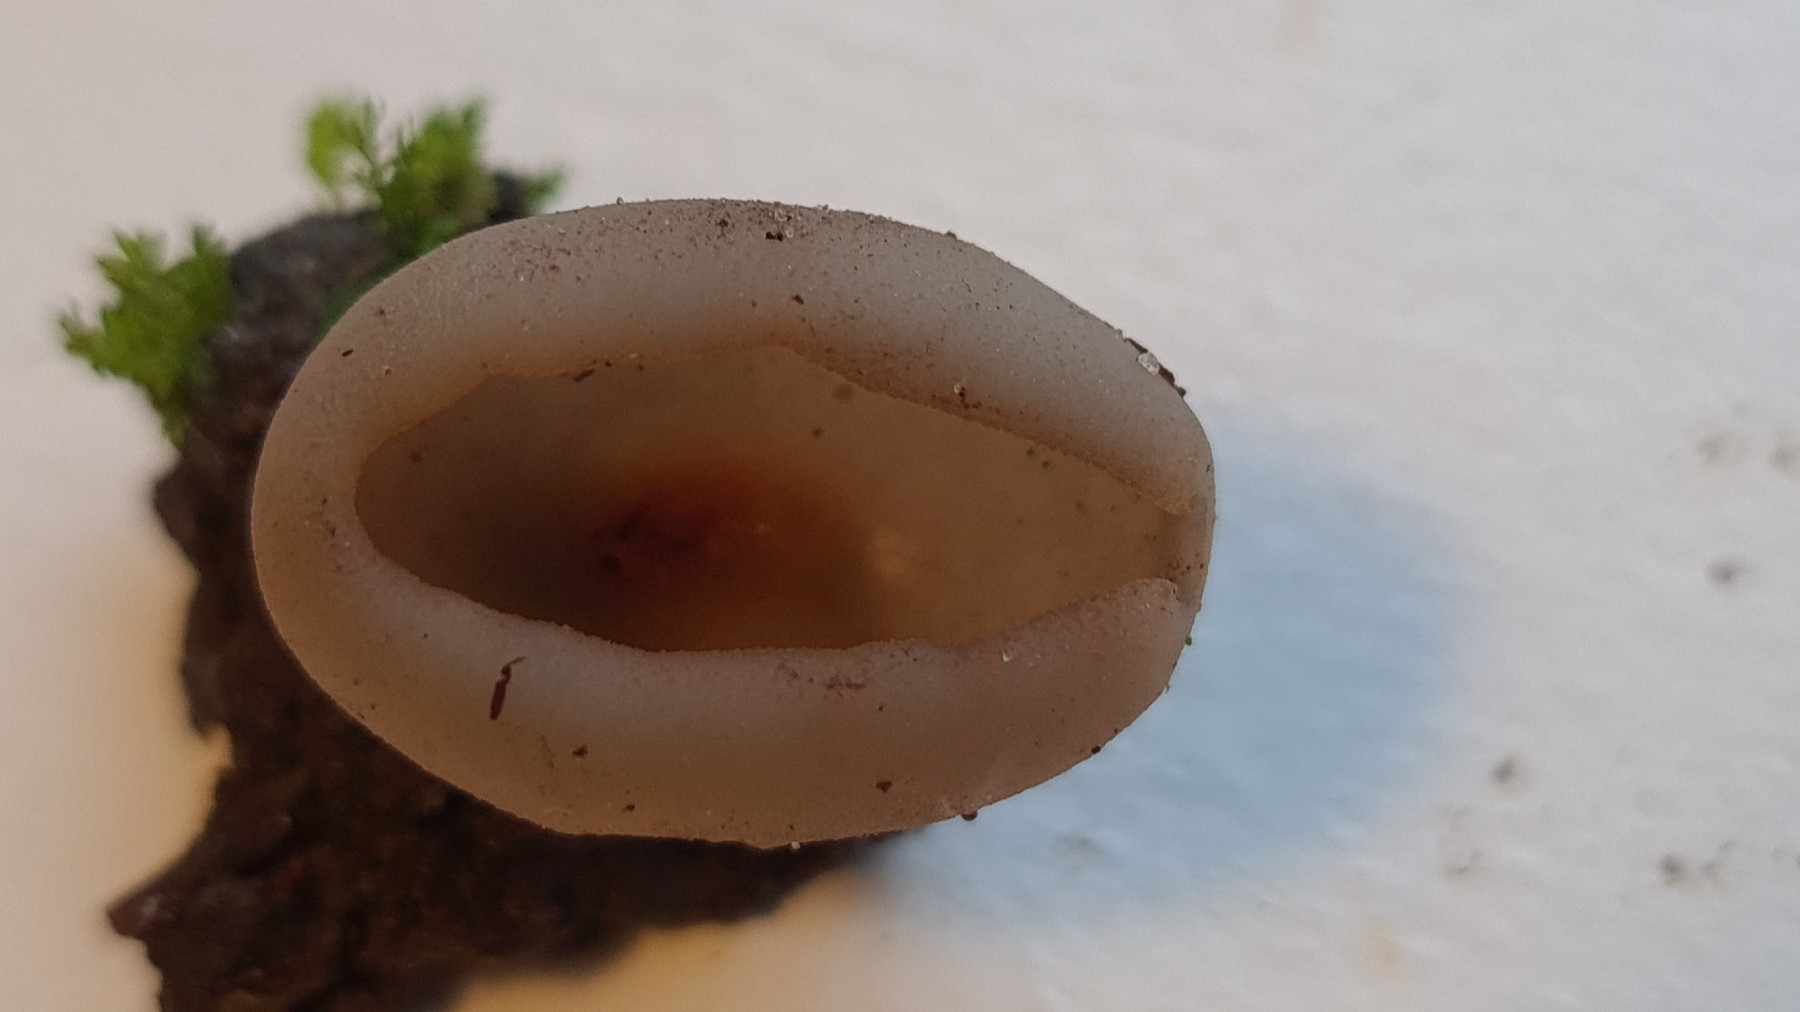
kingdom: Fungi
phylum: Ascomycota
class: Pezizomycetes
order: Pezizales
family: Pezizaceae
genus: Peziza
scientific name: Peziza
